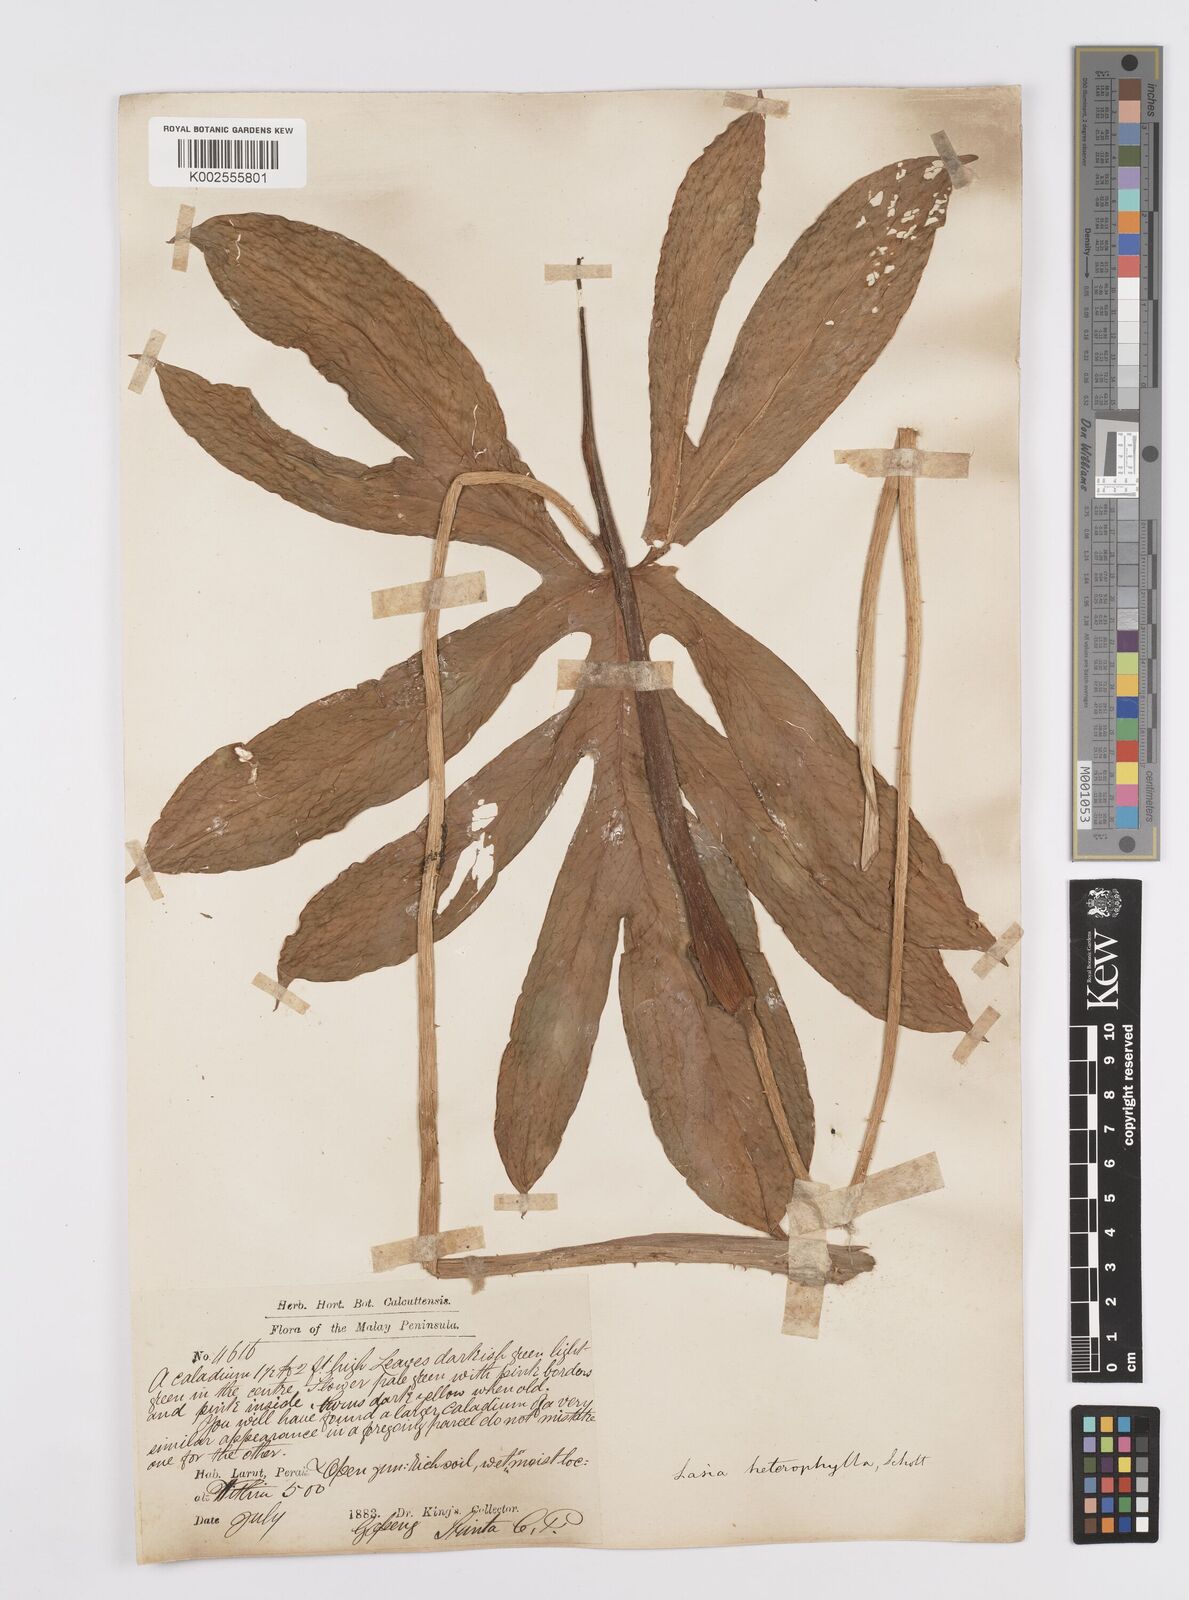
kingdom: Plantae
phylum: Tracheophyta
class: Liliopsida
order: Alismatales
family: Araceae
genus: Lasia
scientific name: Lasia spinosa
